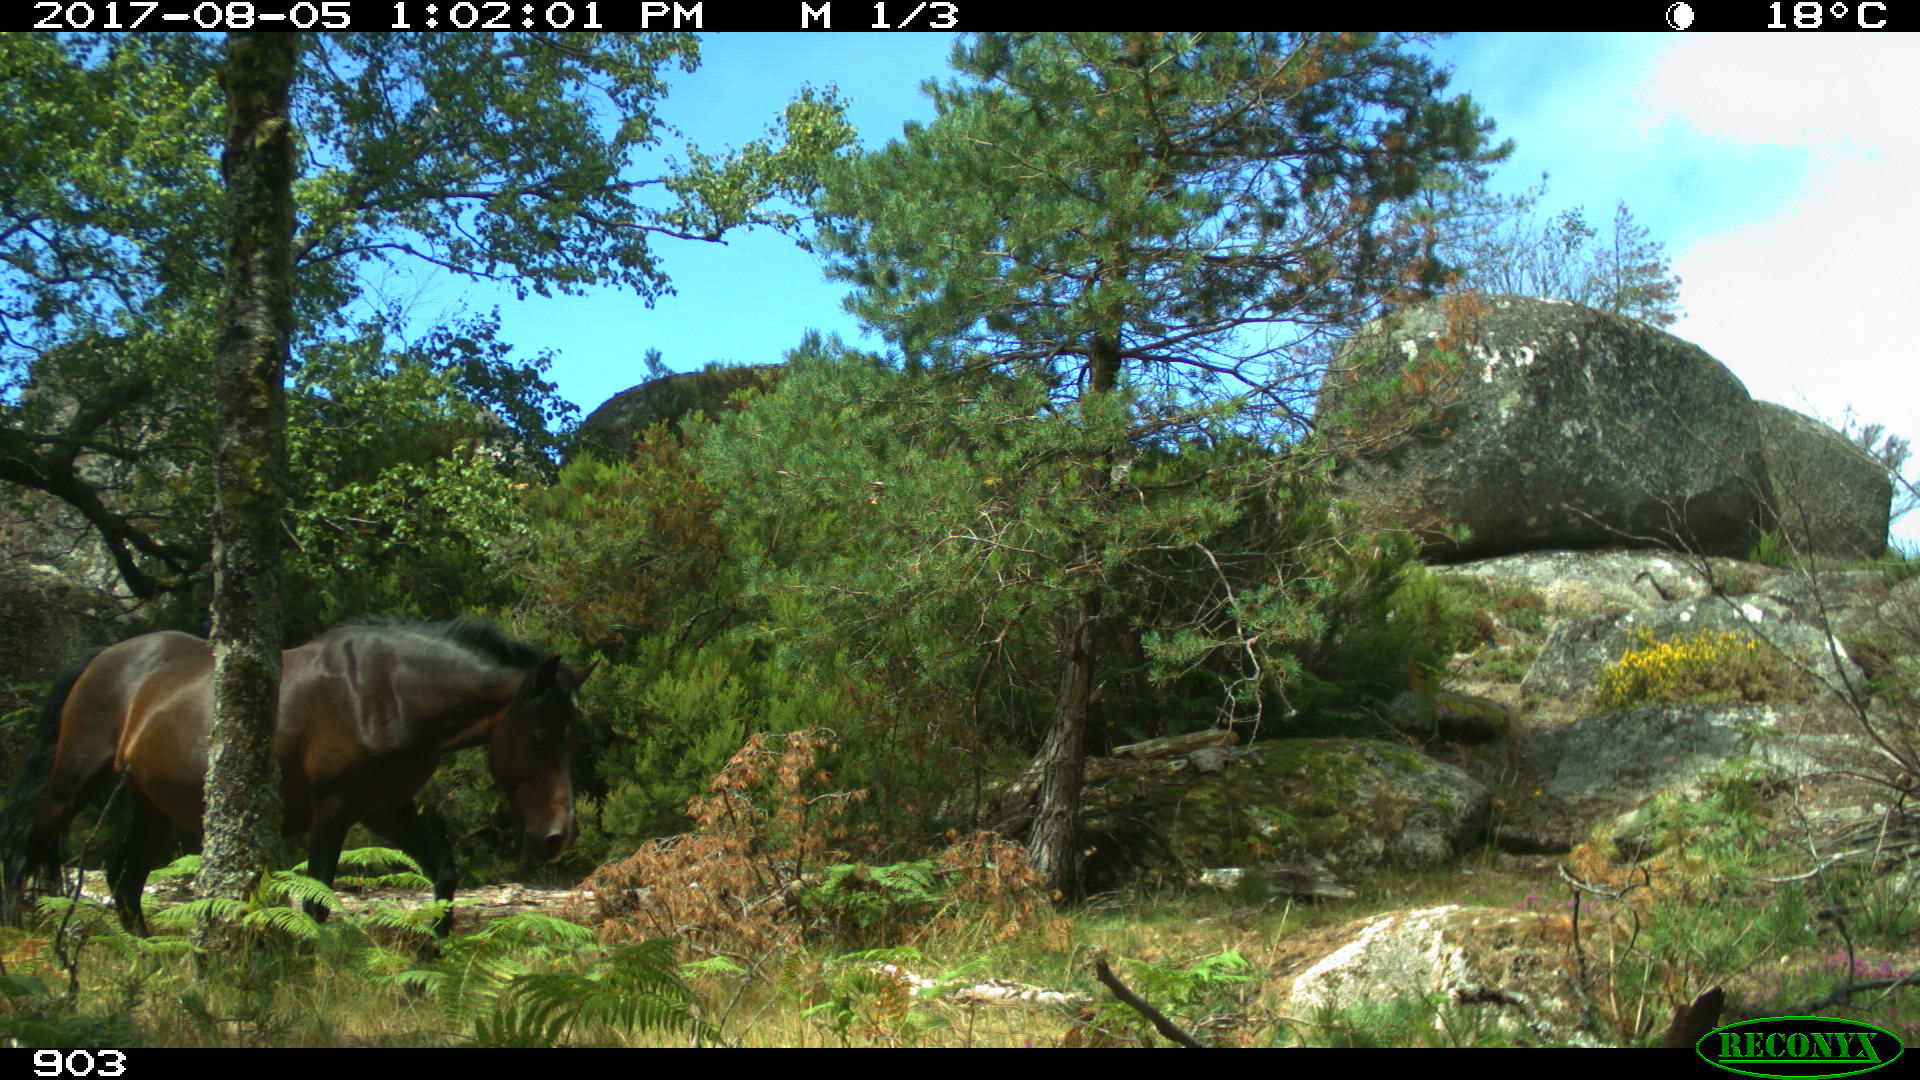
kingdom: Animalia
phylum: Chordata
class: Mammalia
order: Perissodactyla
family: Equidae
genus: Equus
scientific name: Equus caballus
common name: Horse
